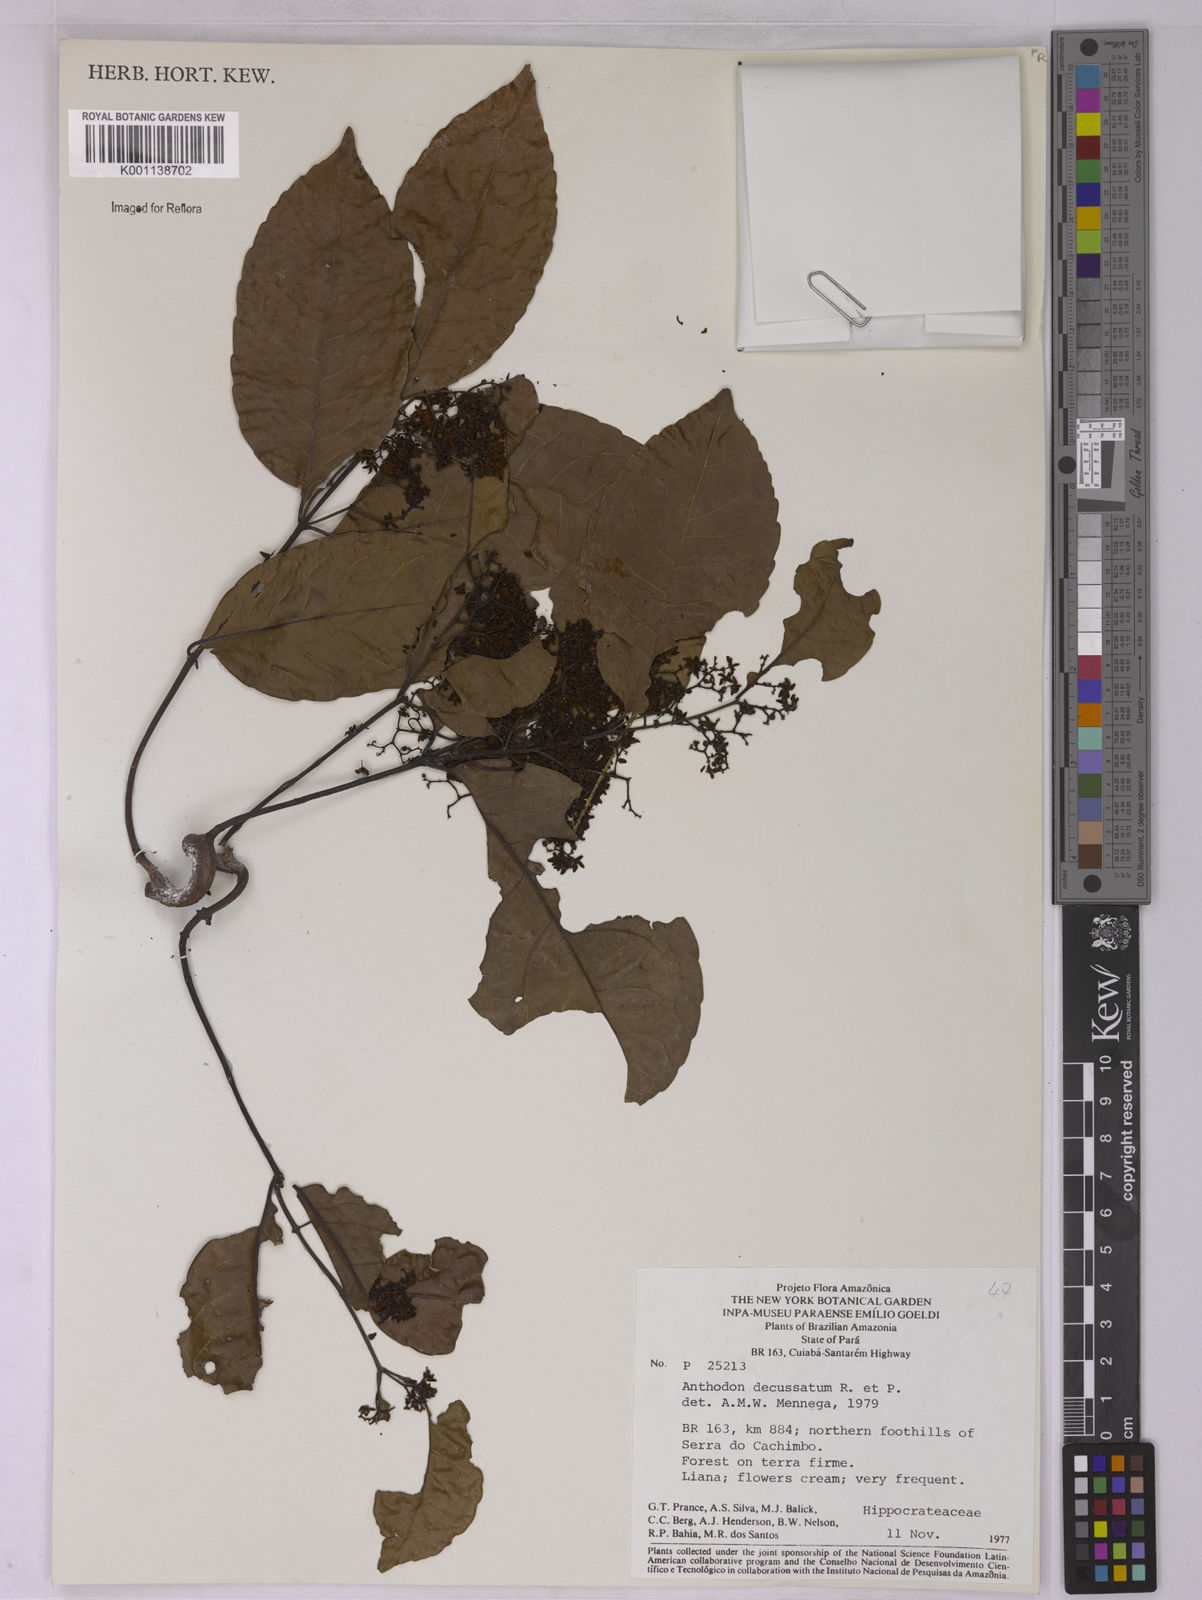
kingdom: Plantae
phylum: Tracheophyta
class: Magnoliopsida
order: Celastrales
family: Celastraceae
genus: Anthodon
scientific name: Anthodon decussatum
